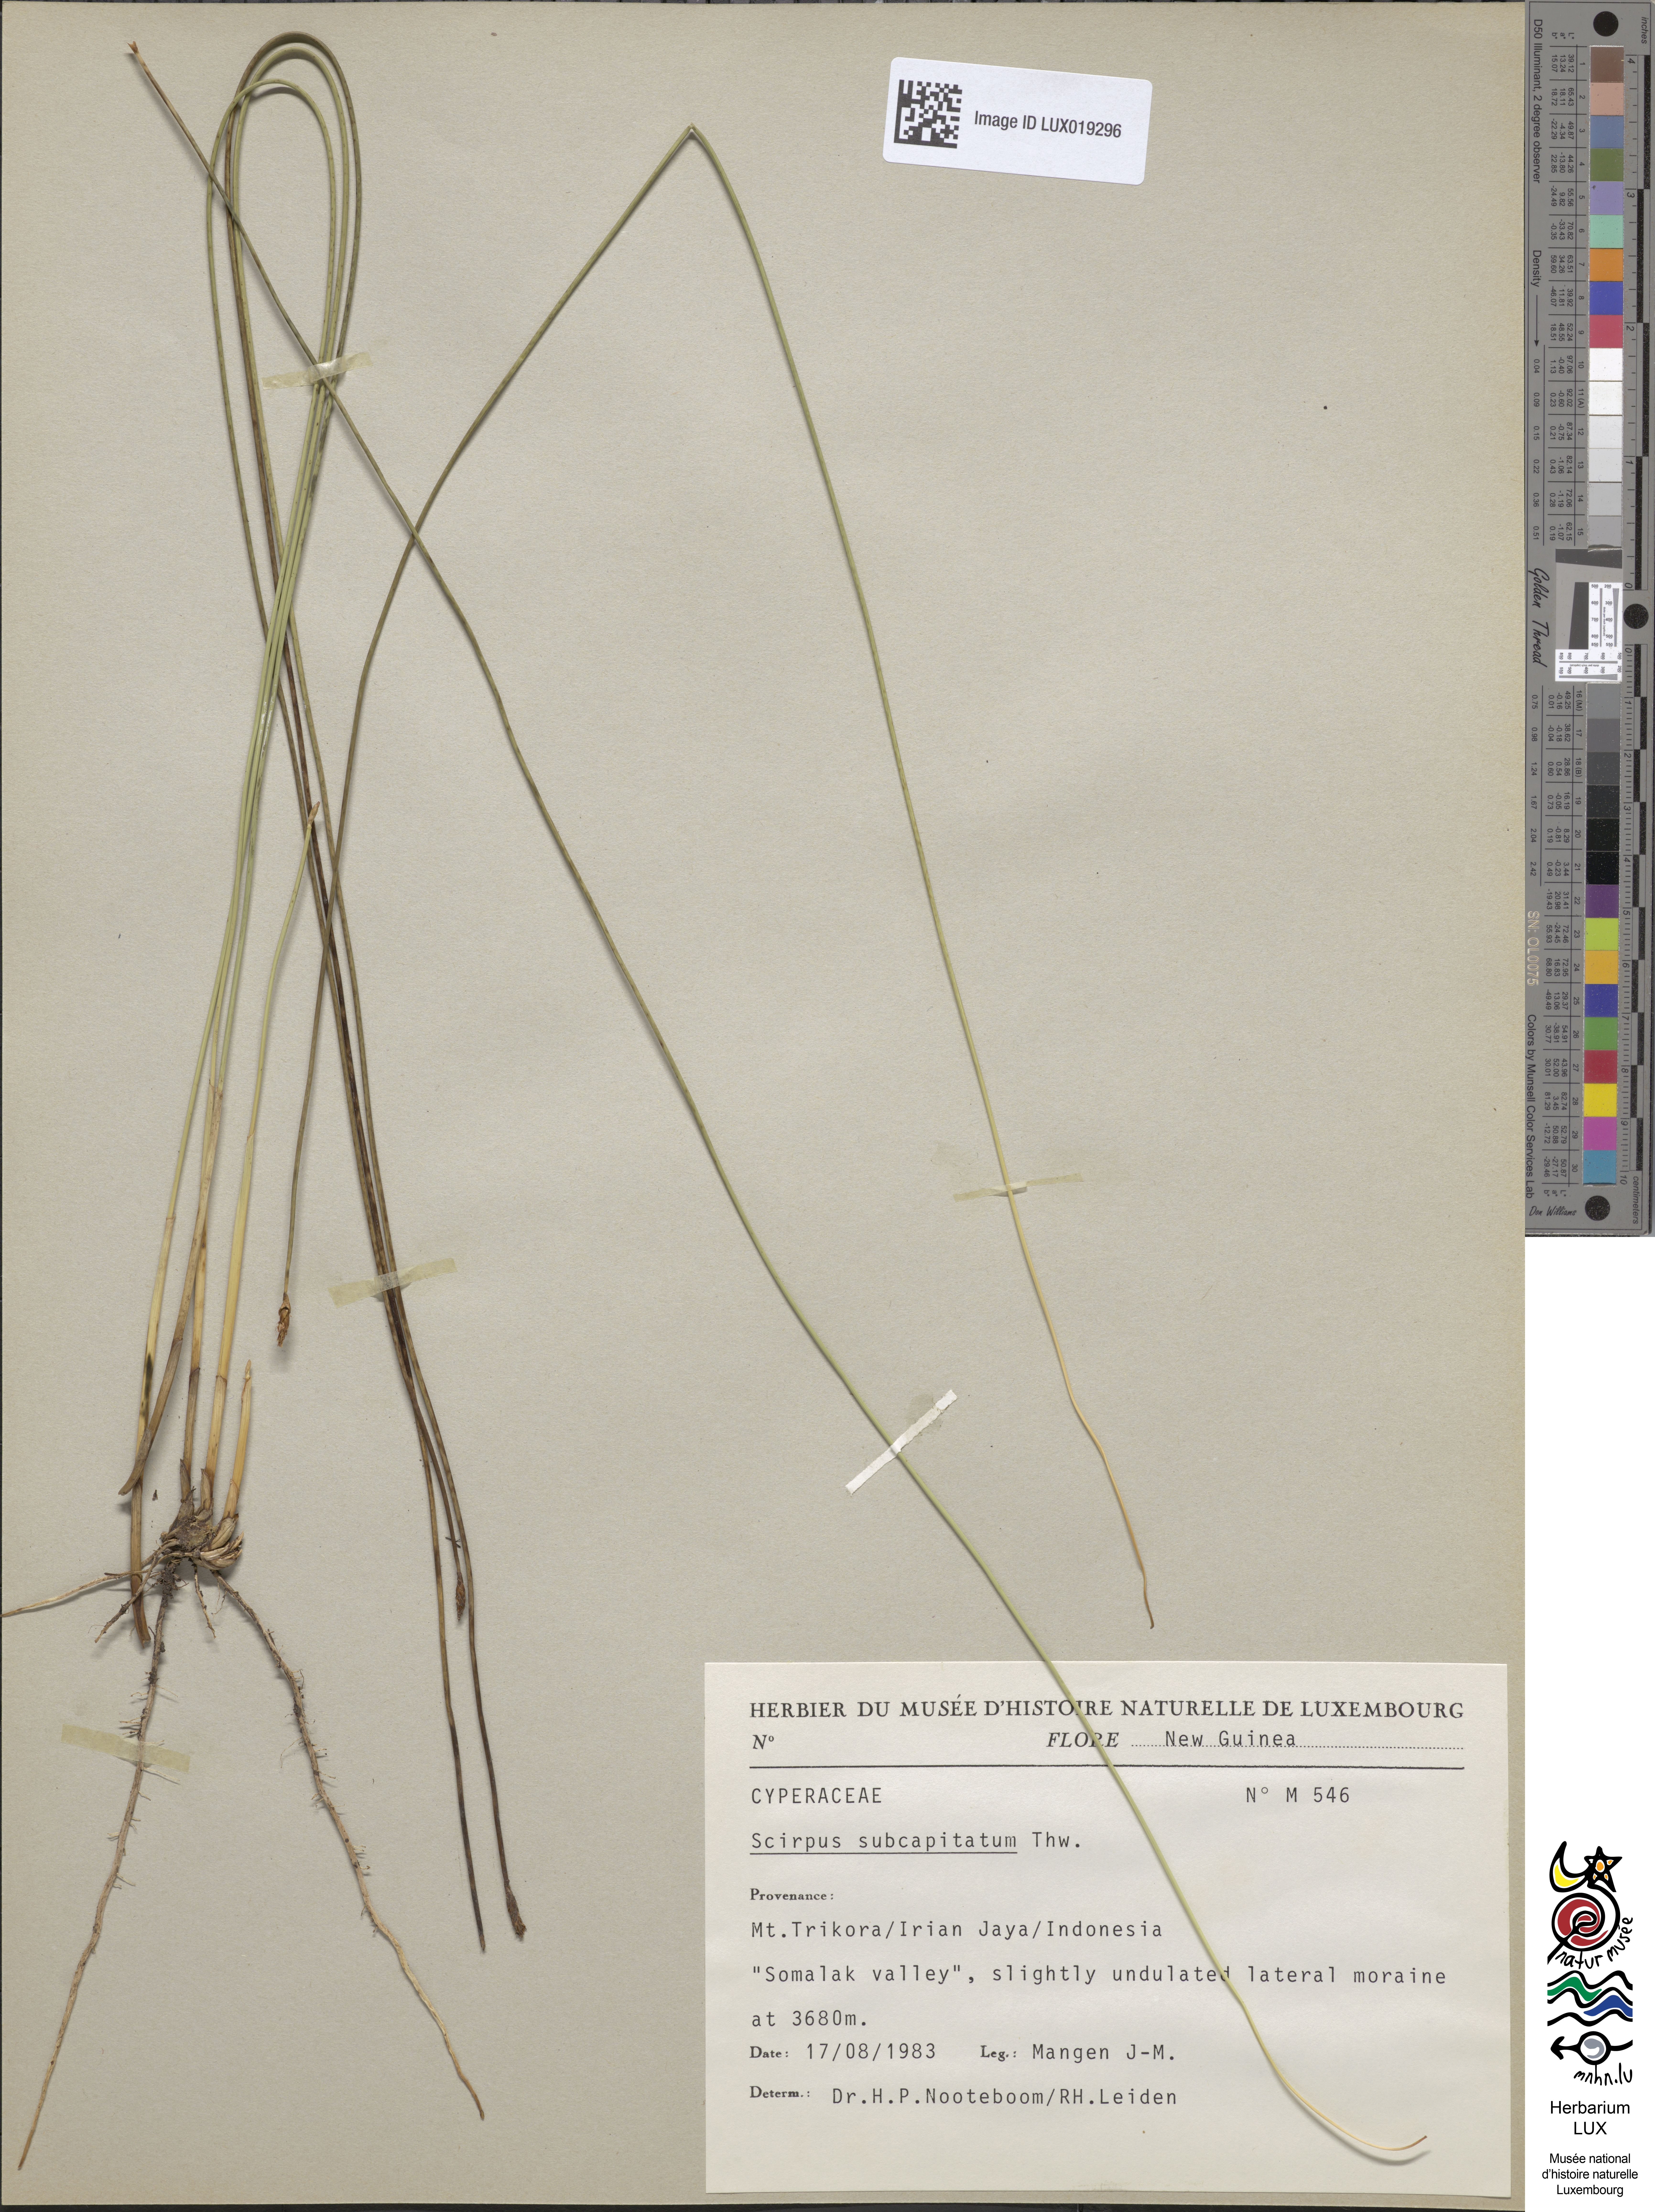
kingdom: Plantae
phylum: Tracheophyta
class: Liliopsida
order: Poales
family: Cyperaceae
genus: Trichophorum
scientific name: Trichophorum subcapitatum
